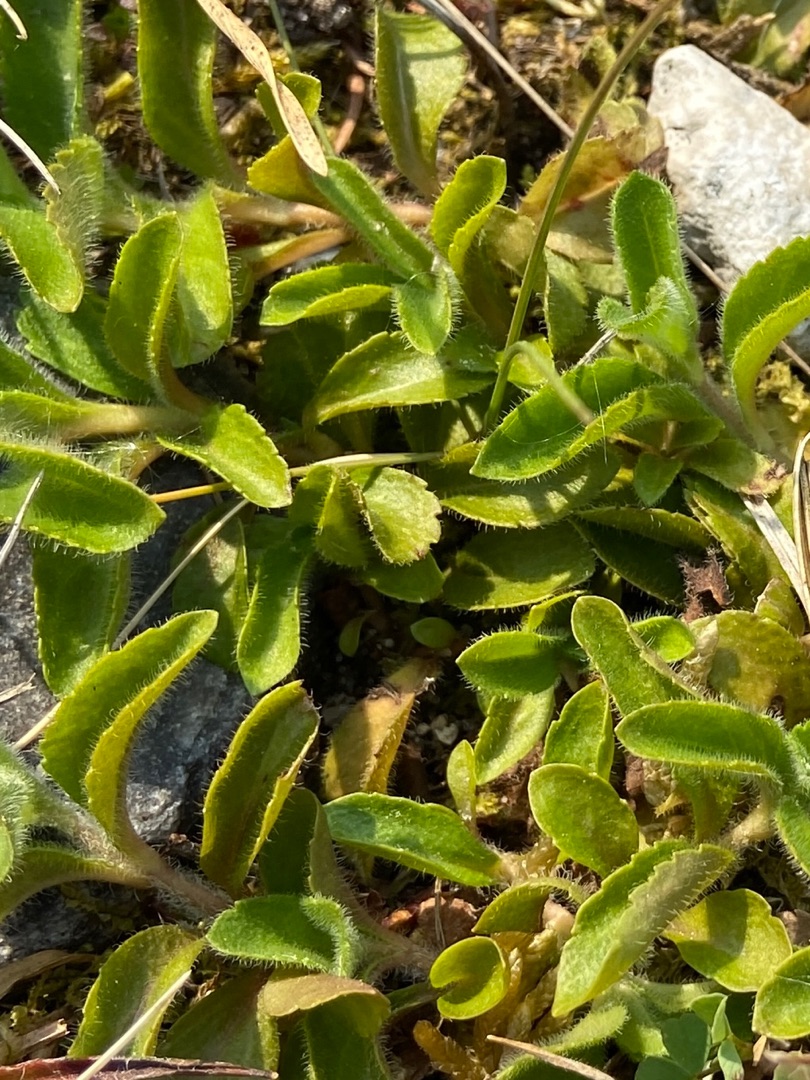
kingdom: Plantae
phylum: Tracheophyta
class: Magnoliopsida
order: Lamiales
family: Plantaginaceae
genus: Veronica
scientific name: Veronica officinalis
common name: Læge-ærenpris
